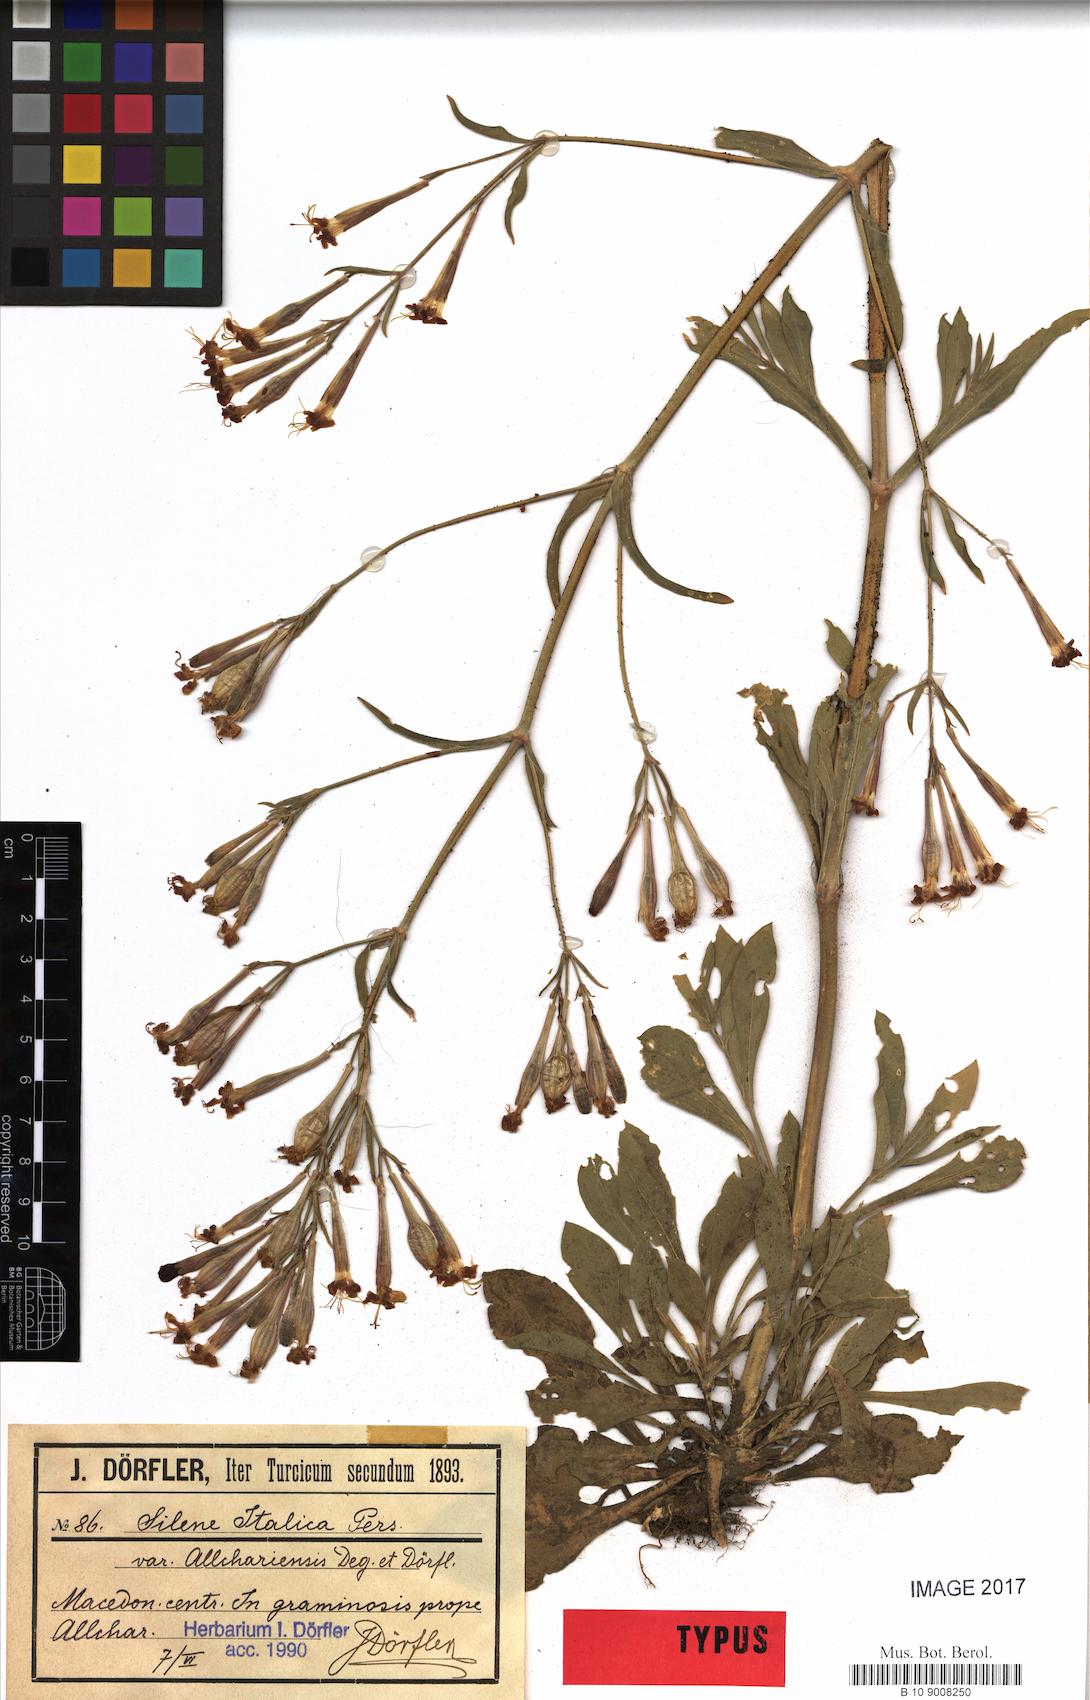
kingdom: Plantae
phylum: Tracheophyta
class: Magnoliopsida
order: Caryophyllales
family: Caryophyllaceae
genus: Silene
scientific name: Silene damboldtiana
